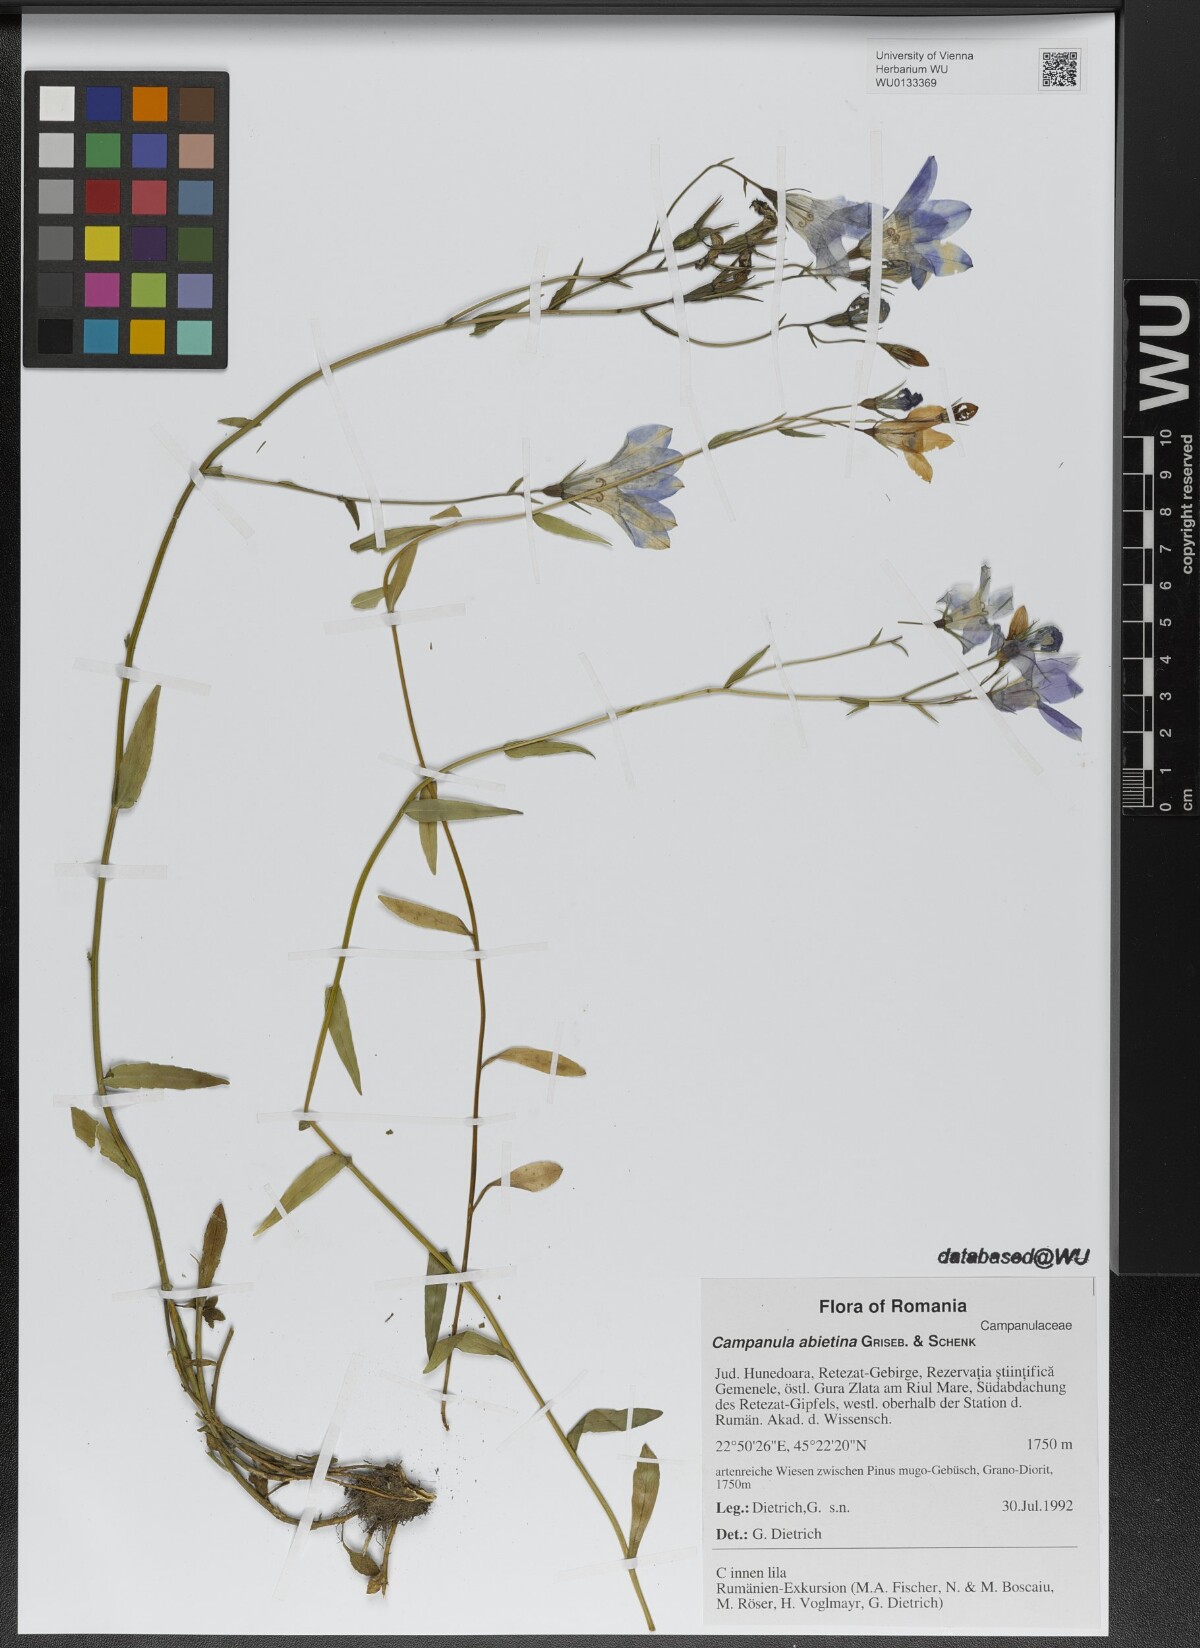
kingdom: Plantae
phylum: Tracheophyta
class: Magnoliopsida
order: Asterales
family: Campanulaceae
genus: Campanula
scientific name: Campanula patula
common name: Spreading bellflower
